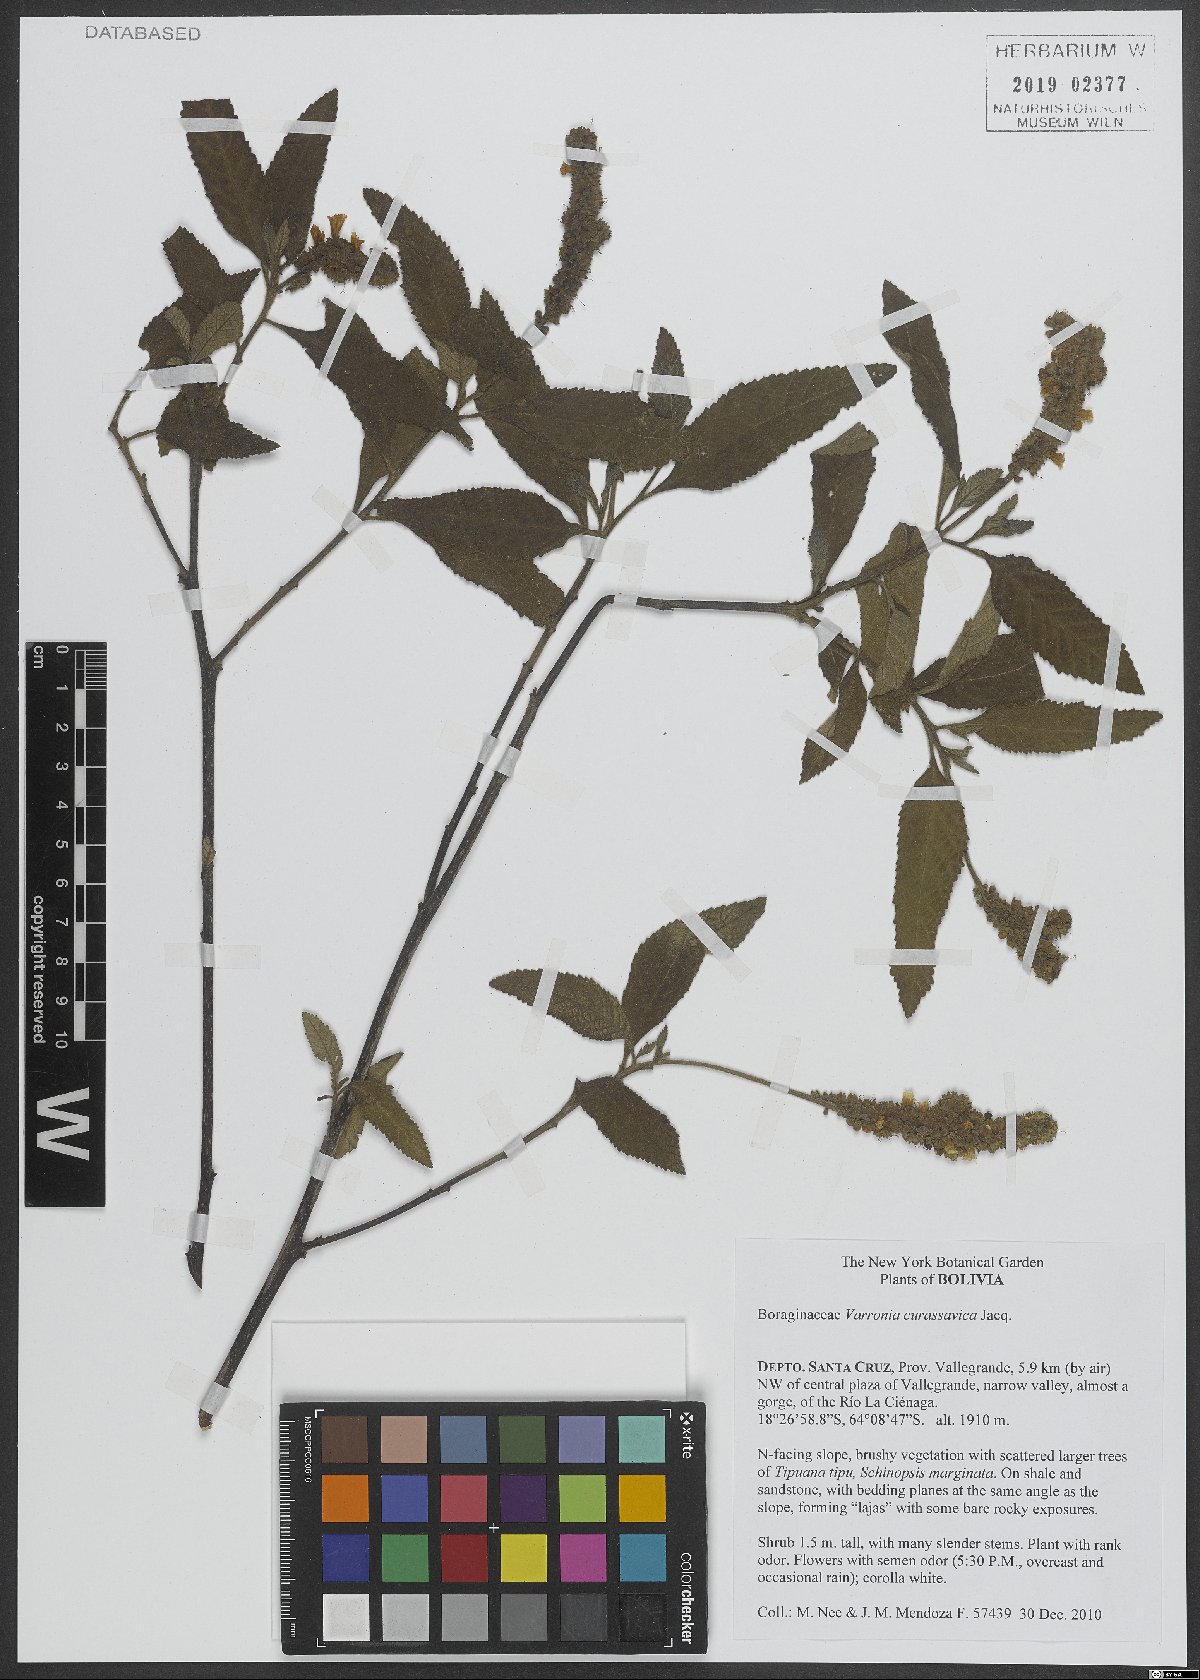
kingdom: Plantae
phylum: Tracheophyta
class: Magnoliopsida
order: Boraginales
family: Cordiaceae
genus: Varronia
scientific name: Varronia curassavica
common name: Black sage
